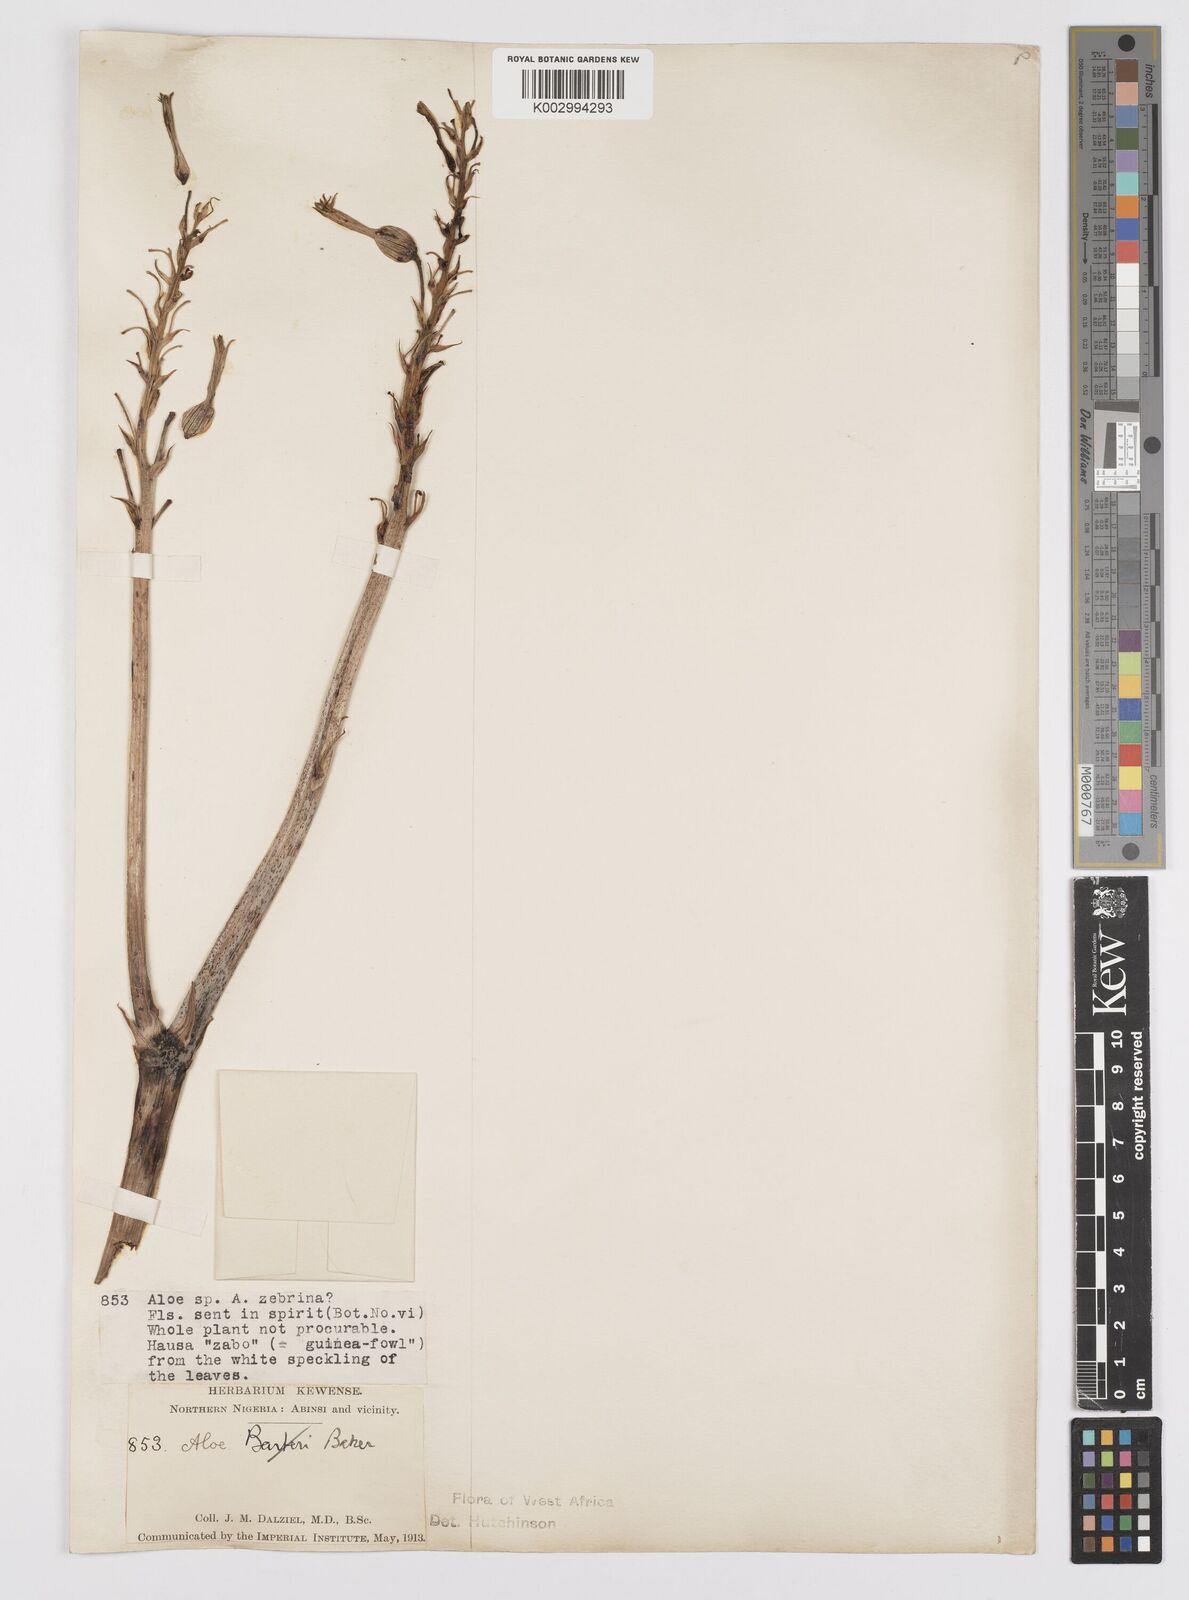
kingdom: Plantae
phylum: Tracheophyta
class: Liliopsida
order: Asparagales
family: Asphodelaceae
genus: Aloe
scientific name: Aloe
